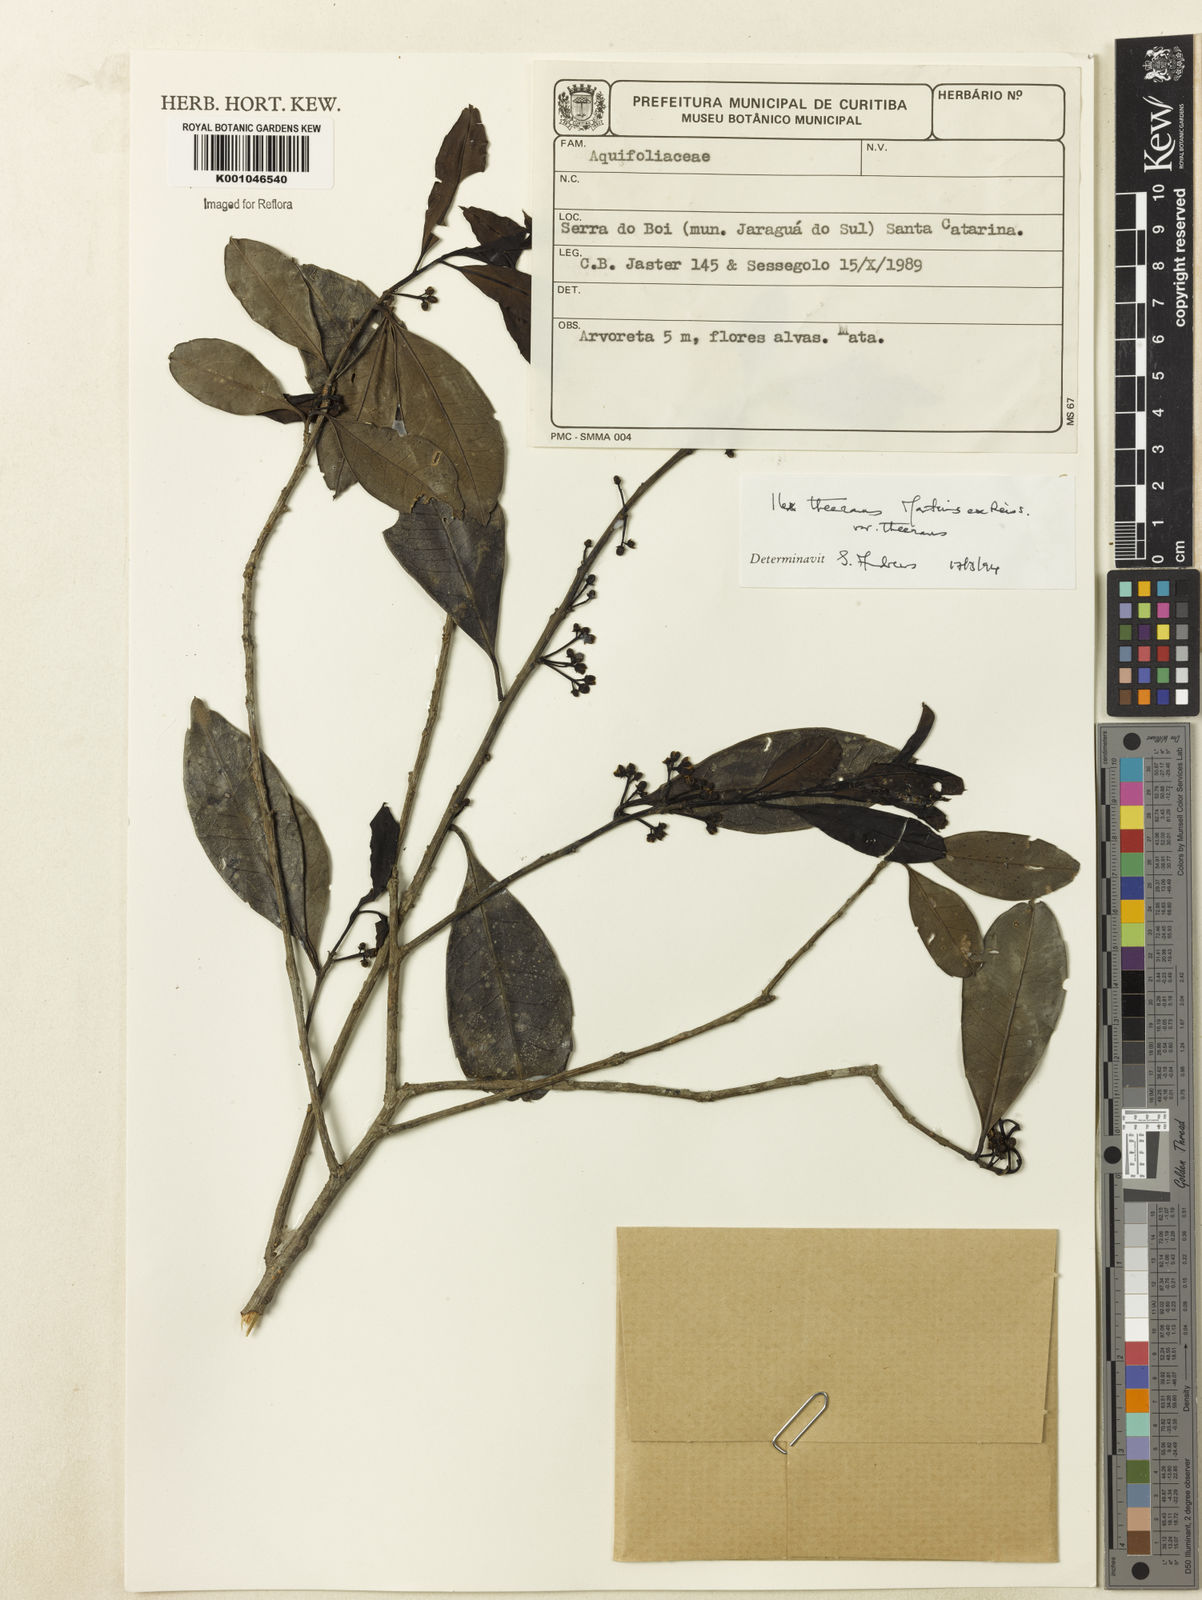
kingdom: Plantae
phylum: Tracheophyta
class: Magnoliopsida
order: Aquifoliales
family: Aquifoliaceae
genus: Ilex
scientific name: Ilex theezans
